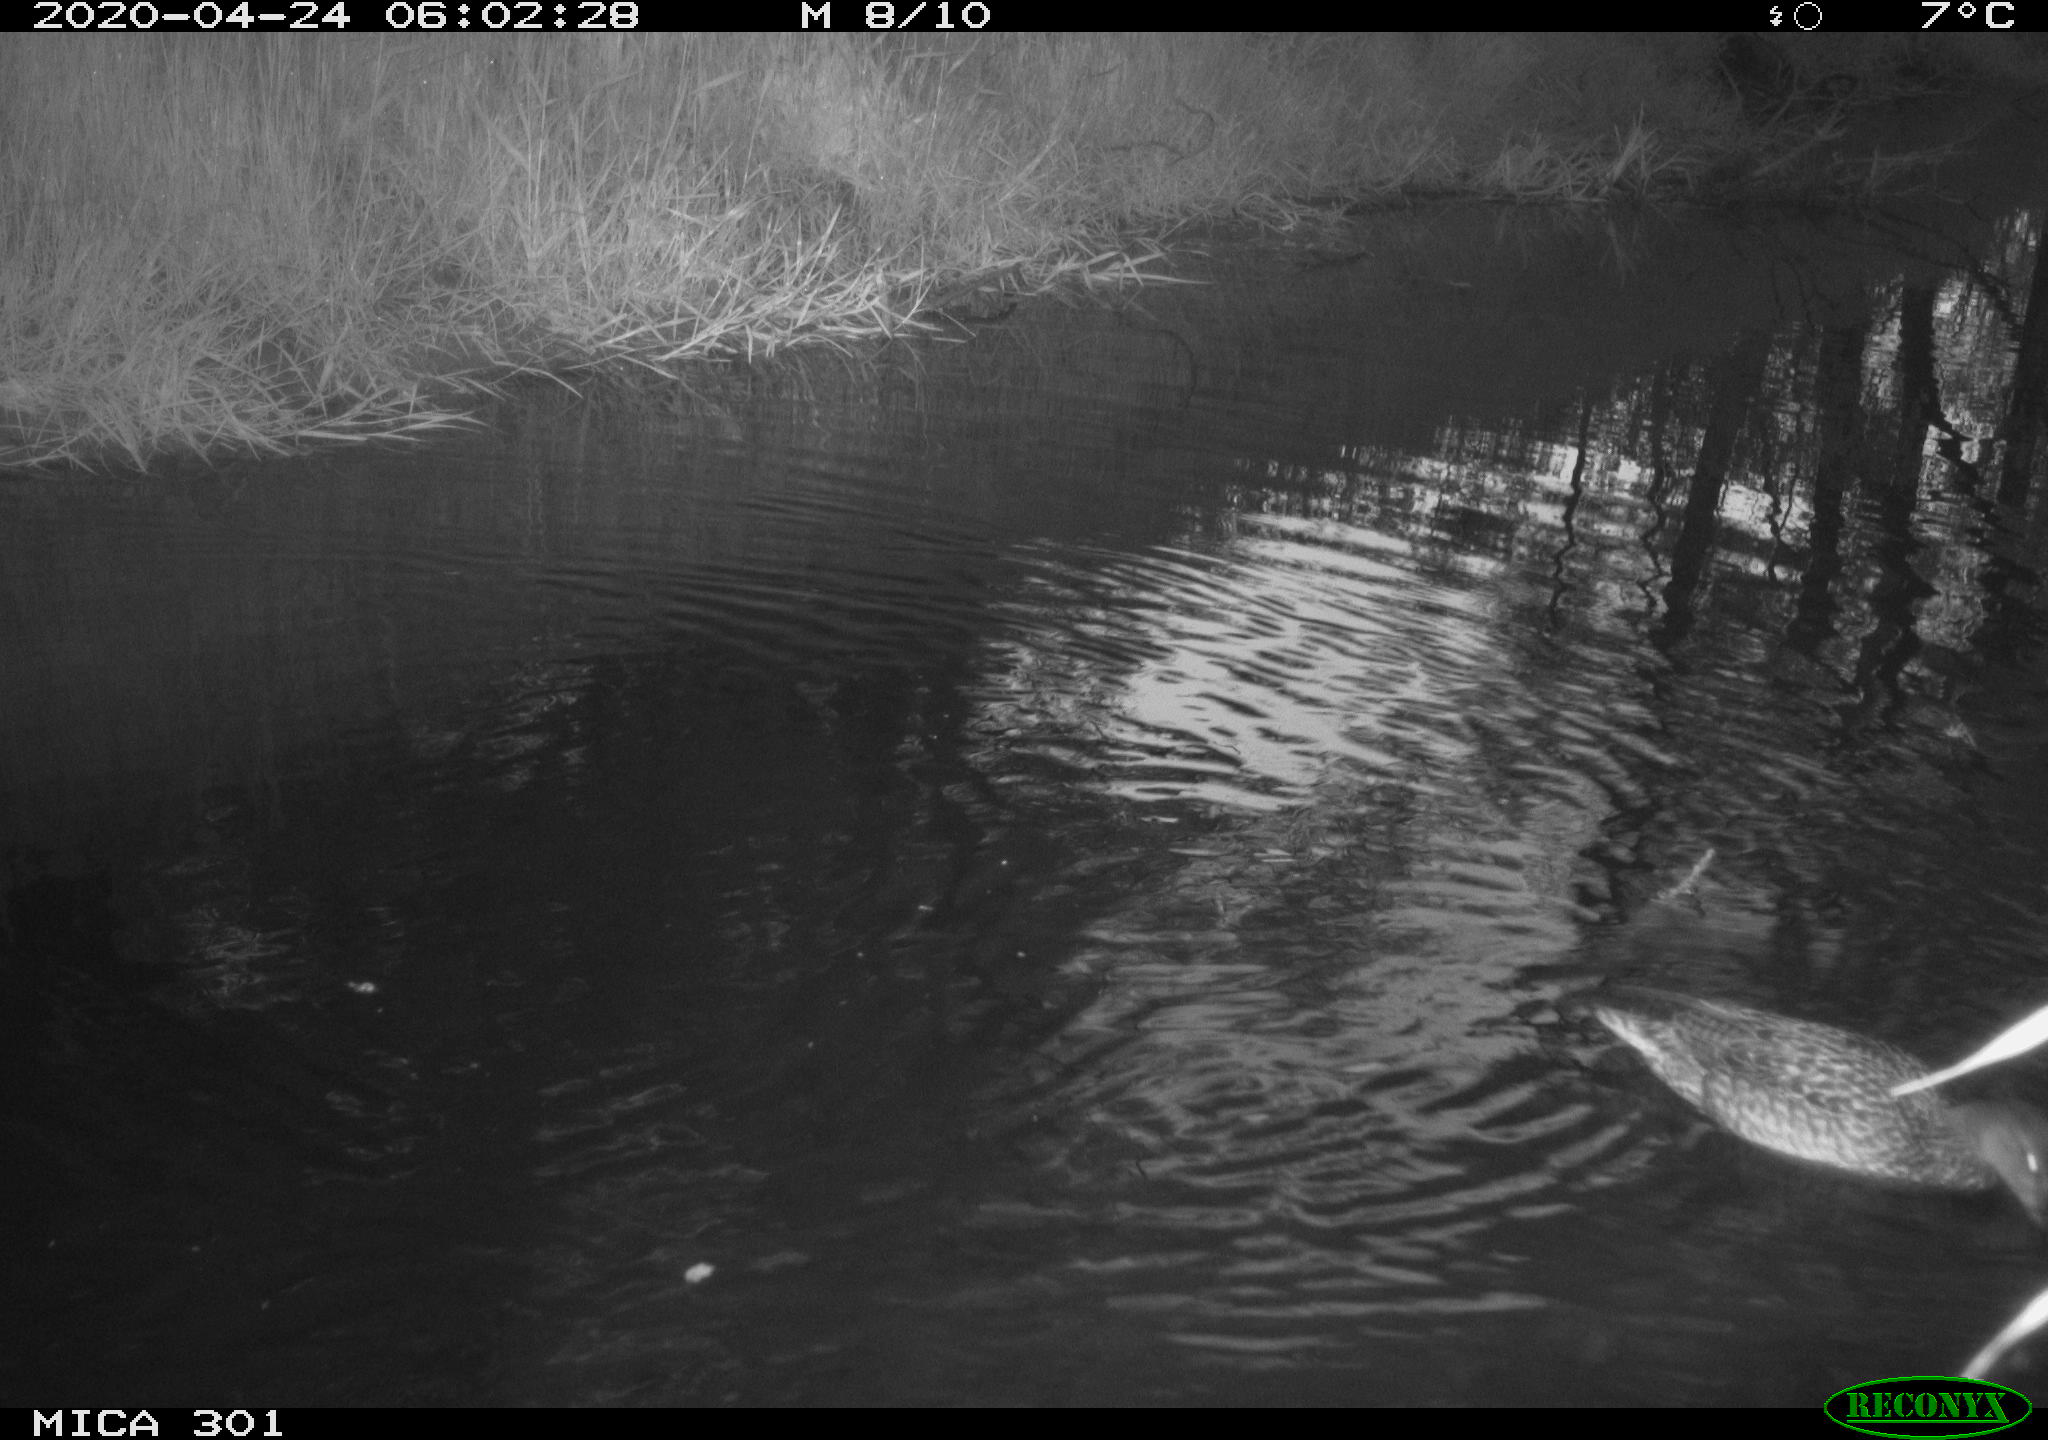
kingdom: Animalia
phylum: Chordata
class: Aves
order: Anseriformes
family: Anatidae
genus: Mareca
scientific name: Mareca strepera
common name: Gadwall
